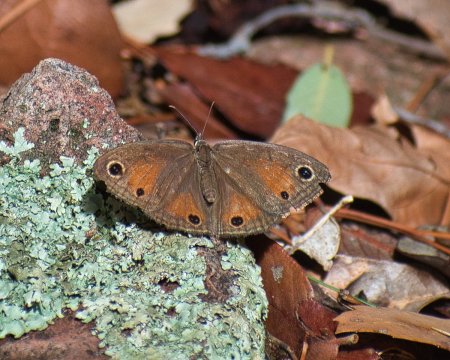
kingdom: Animalia
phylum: Arthropoda
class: Insecta
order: Lepidoptera
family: Nymphalidae
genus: Euptychia
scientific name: Euptychia rubricata
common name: Red Satyr
